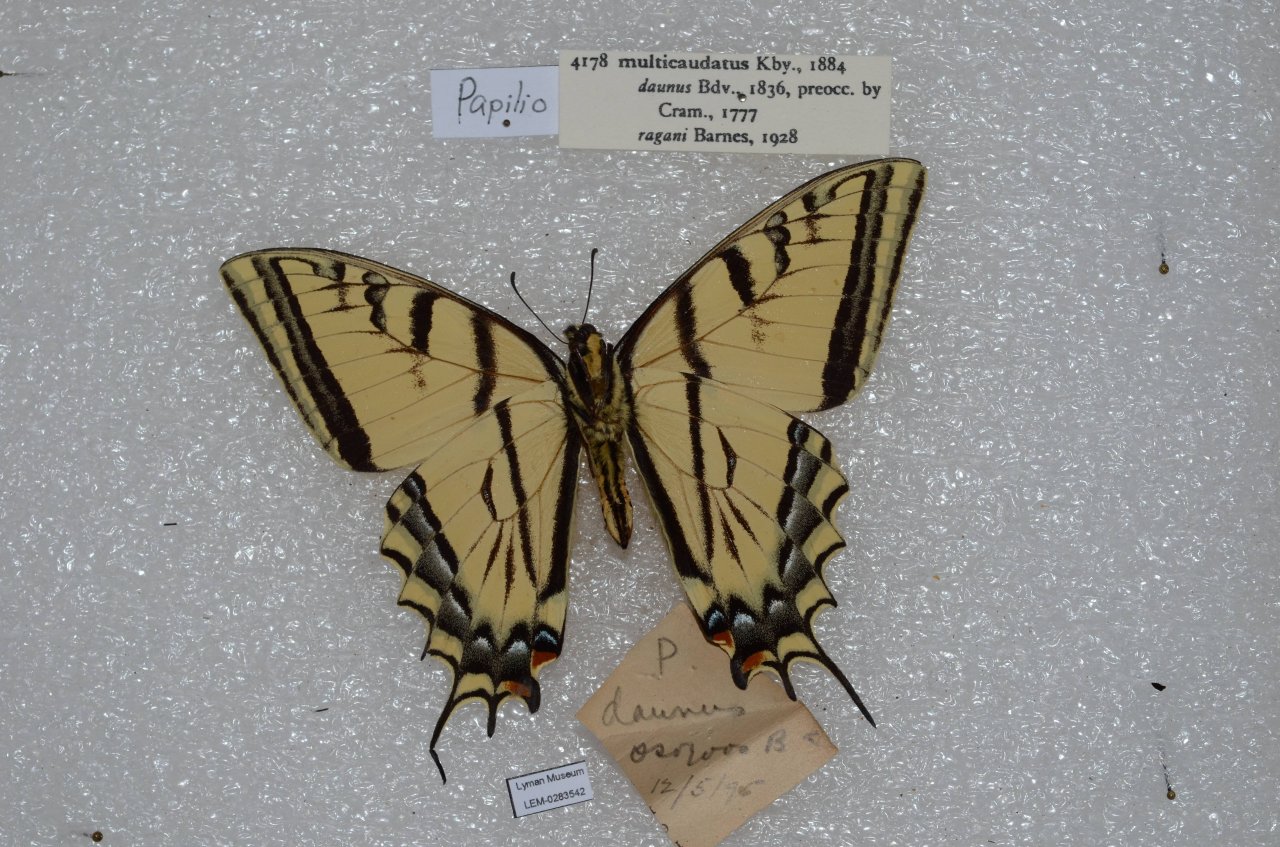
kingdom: Animalia
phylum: Arthropoda
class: Insecta
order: Lepidoptera
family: Papilionidae
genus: Papilio
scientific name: Papilio multicaudata
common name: Two-tailed Swallowtail
